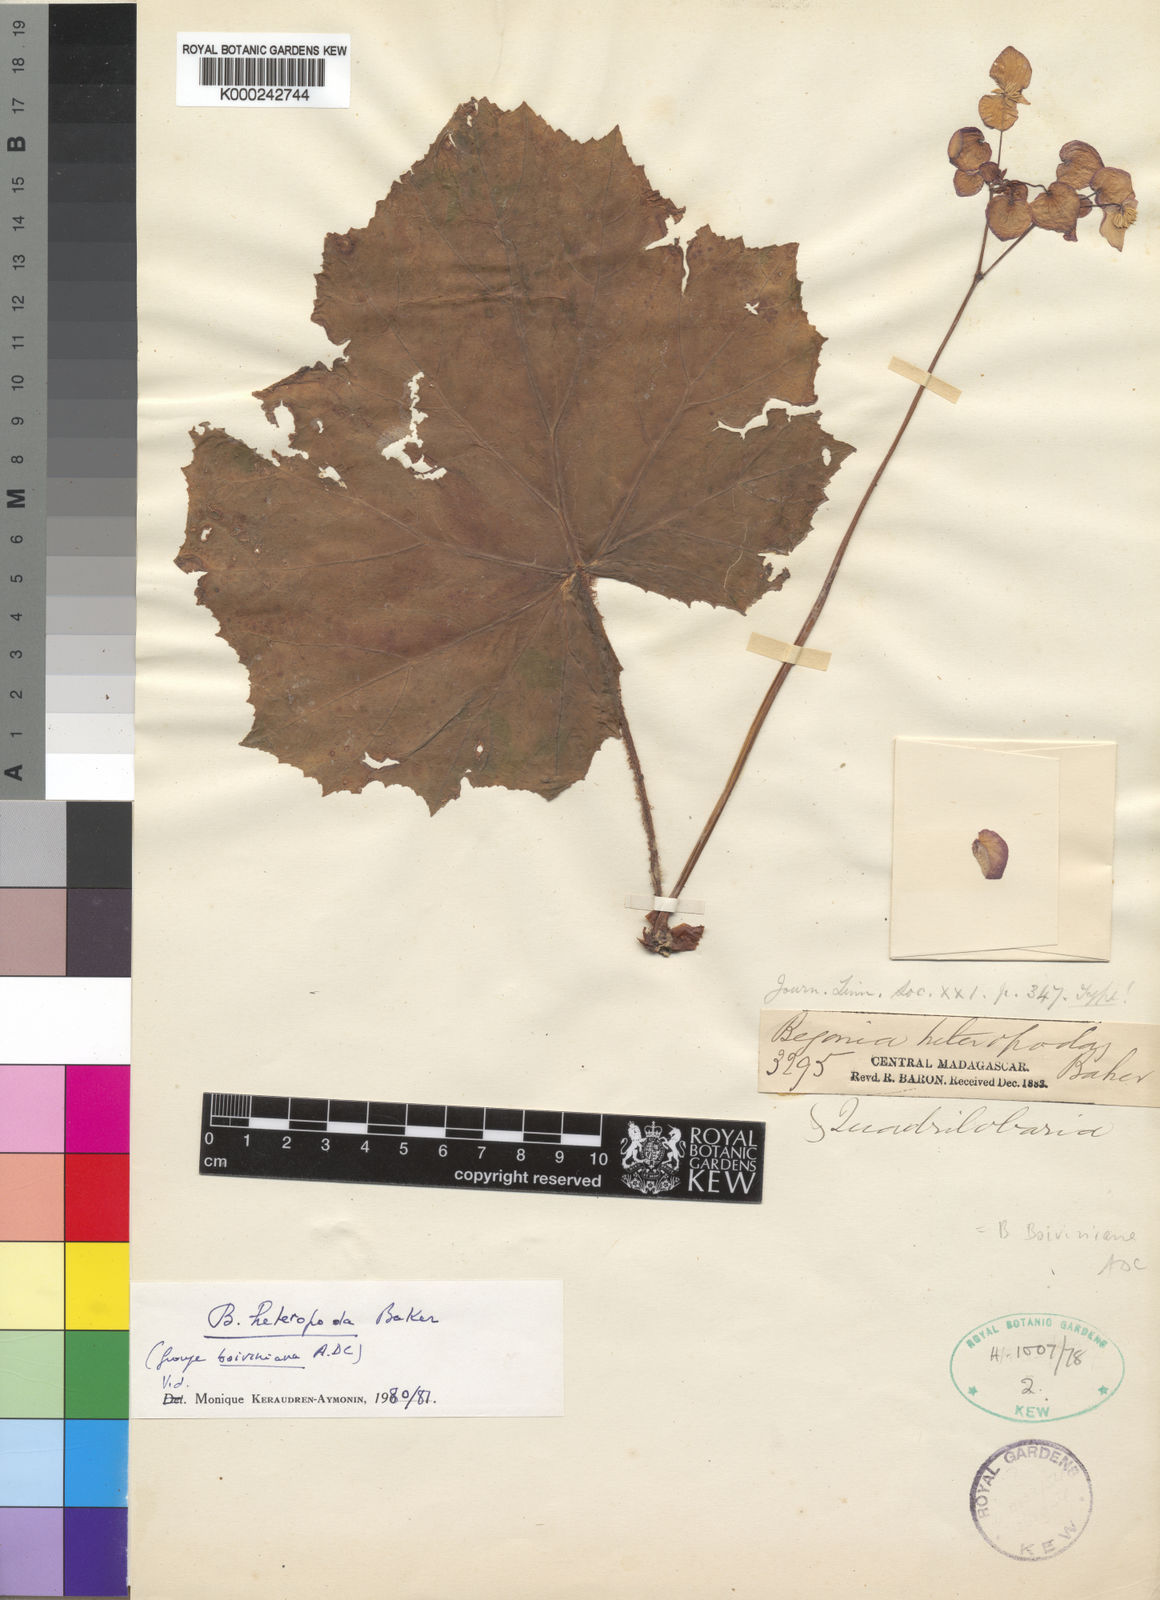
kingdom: Plantae
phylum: Tracheophyta
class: Magnoliopsida
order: Cucurbitales
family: Begoniaceae
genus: Begonia
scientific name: Begonia heteropoda
